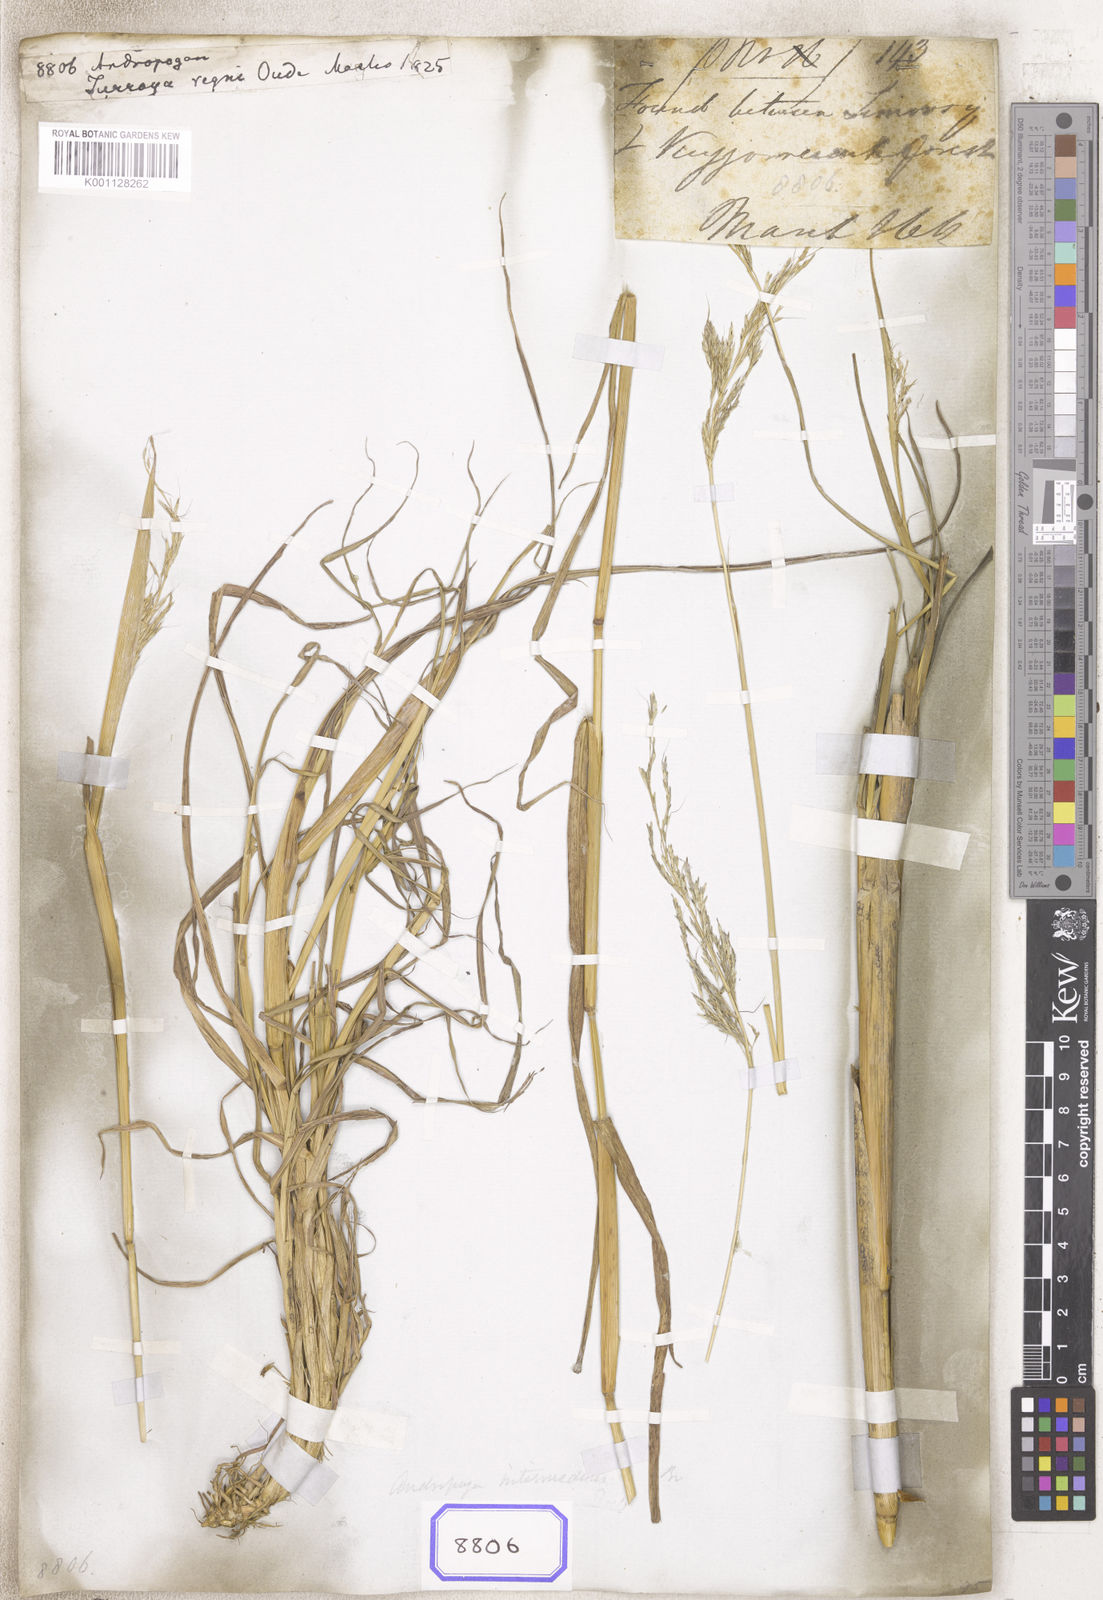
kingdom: Plantae
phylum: Tracheophyta
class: Liliopsida
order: Poales
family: Poaceae
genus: Andropogon
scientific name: Andropogon
